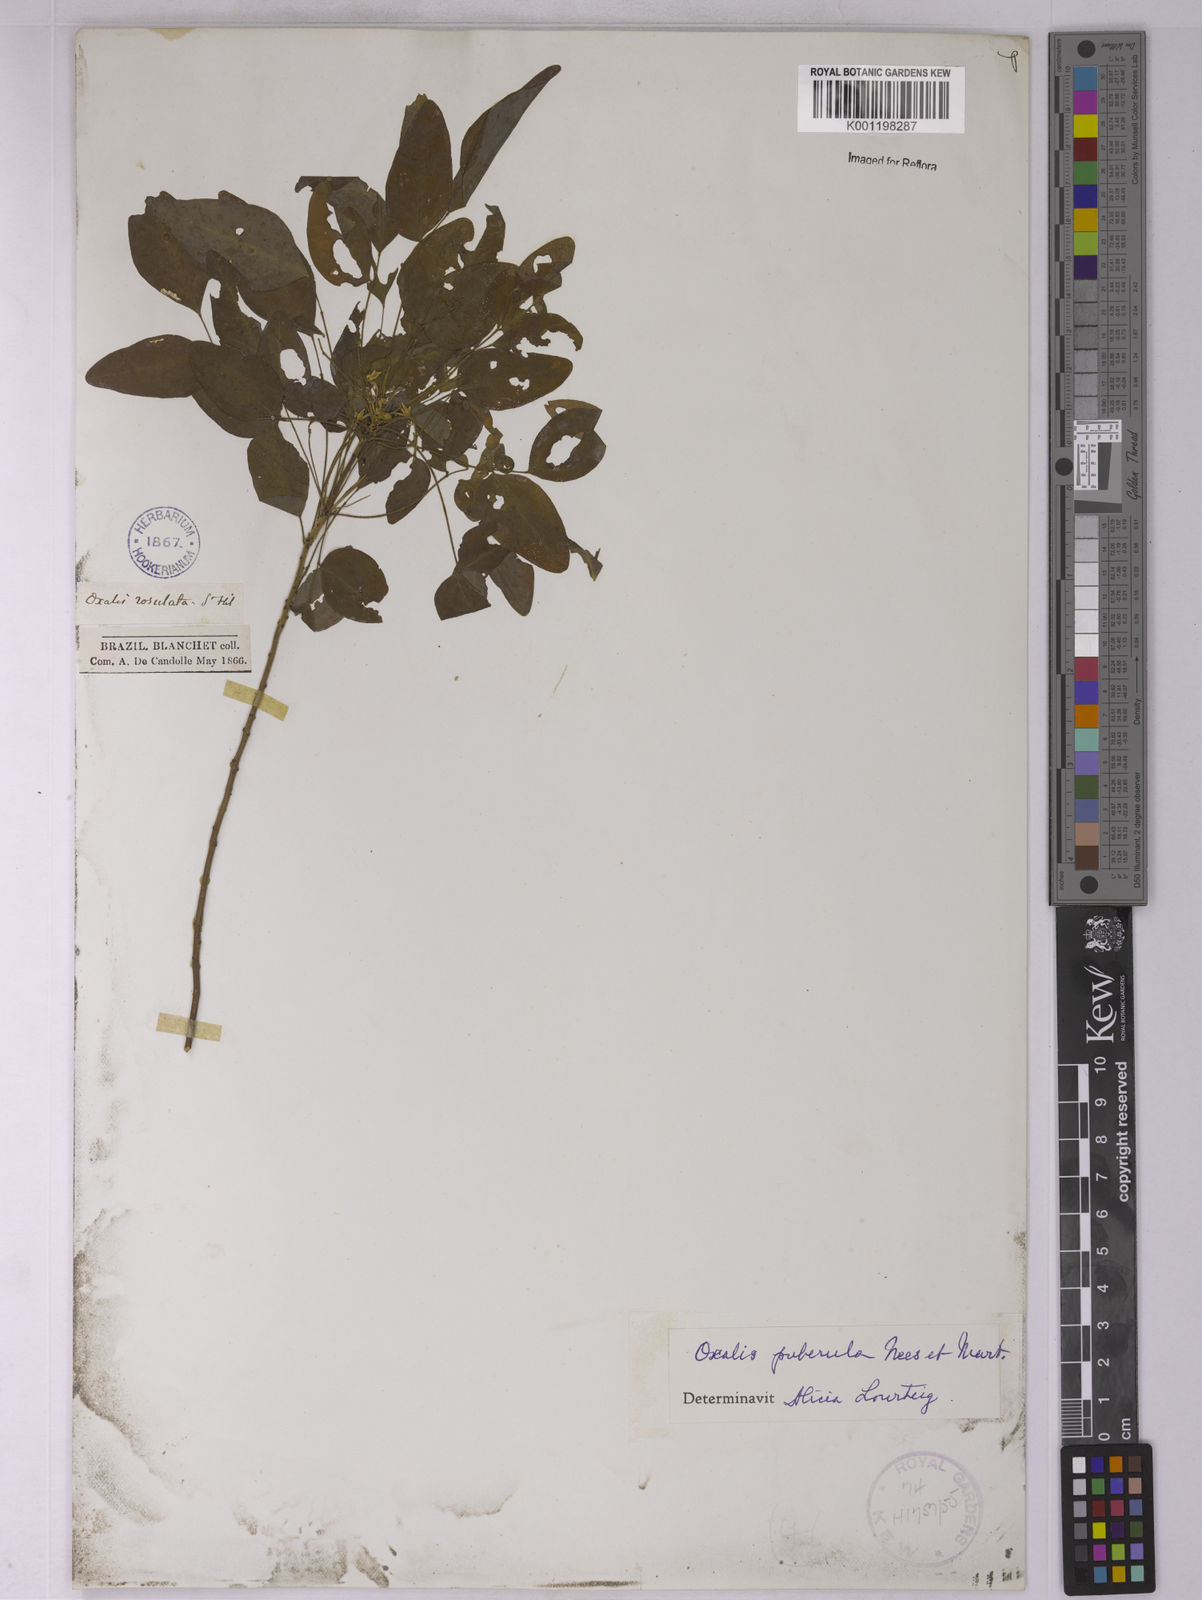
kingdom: Plantae
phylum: Tracheophyta
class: Magnoliopsida
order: Oxalidales
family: Oxalidaceae
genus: Oxalis
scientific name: Oxalis puberula
